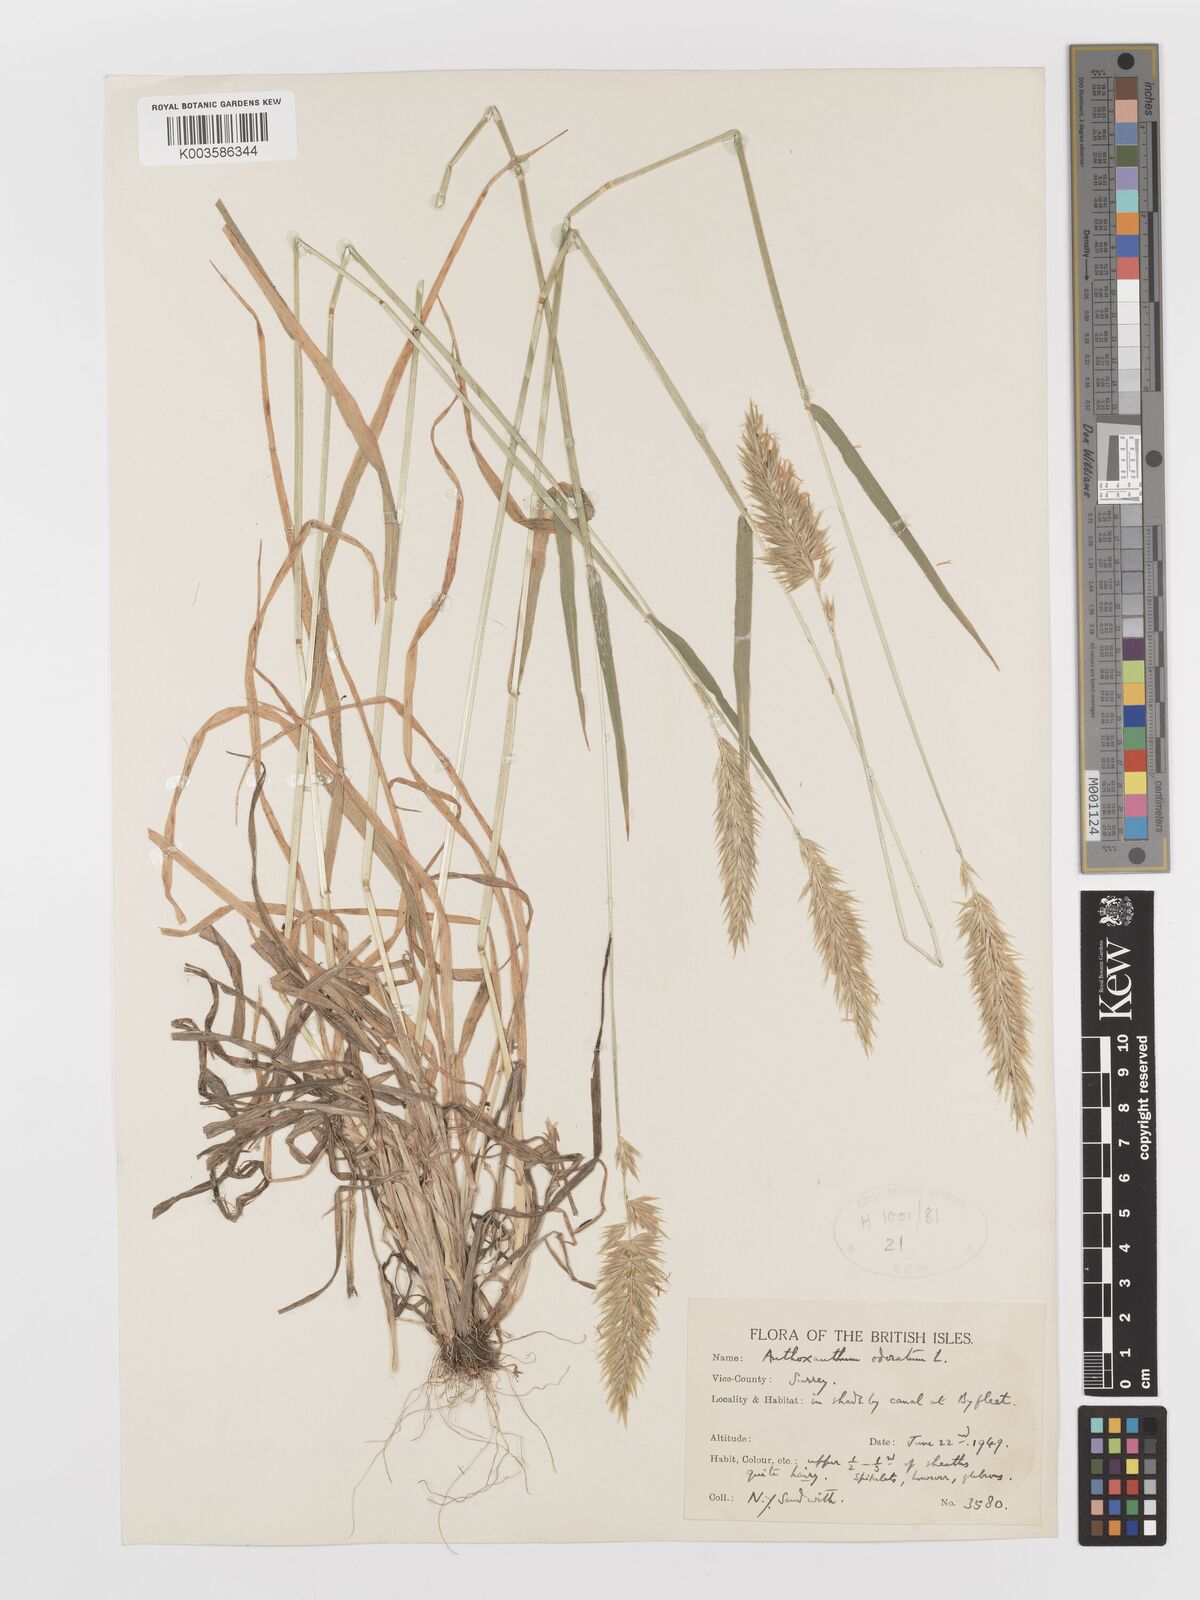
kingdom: Plantae
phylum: Tracheophyta
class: Liliopsida
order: Poales
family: Poaceae
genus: Anthoxanthum
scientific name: Anthoxanthum odoratum
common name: Sweet vernalgrass
